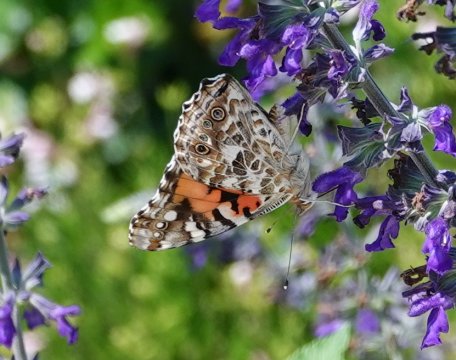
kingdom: Animalia
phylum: Arthropoda
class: Insecta
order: Lepidoptera
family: Nymphalidae
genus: Vanessa
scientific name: Vanessa cardui
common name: Painted Lady
